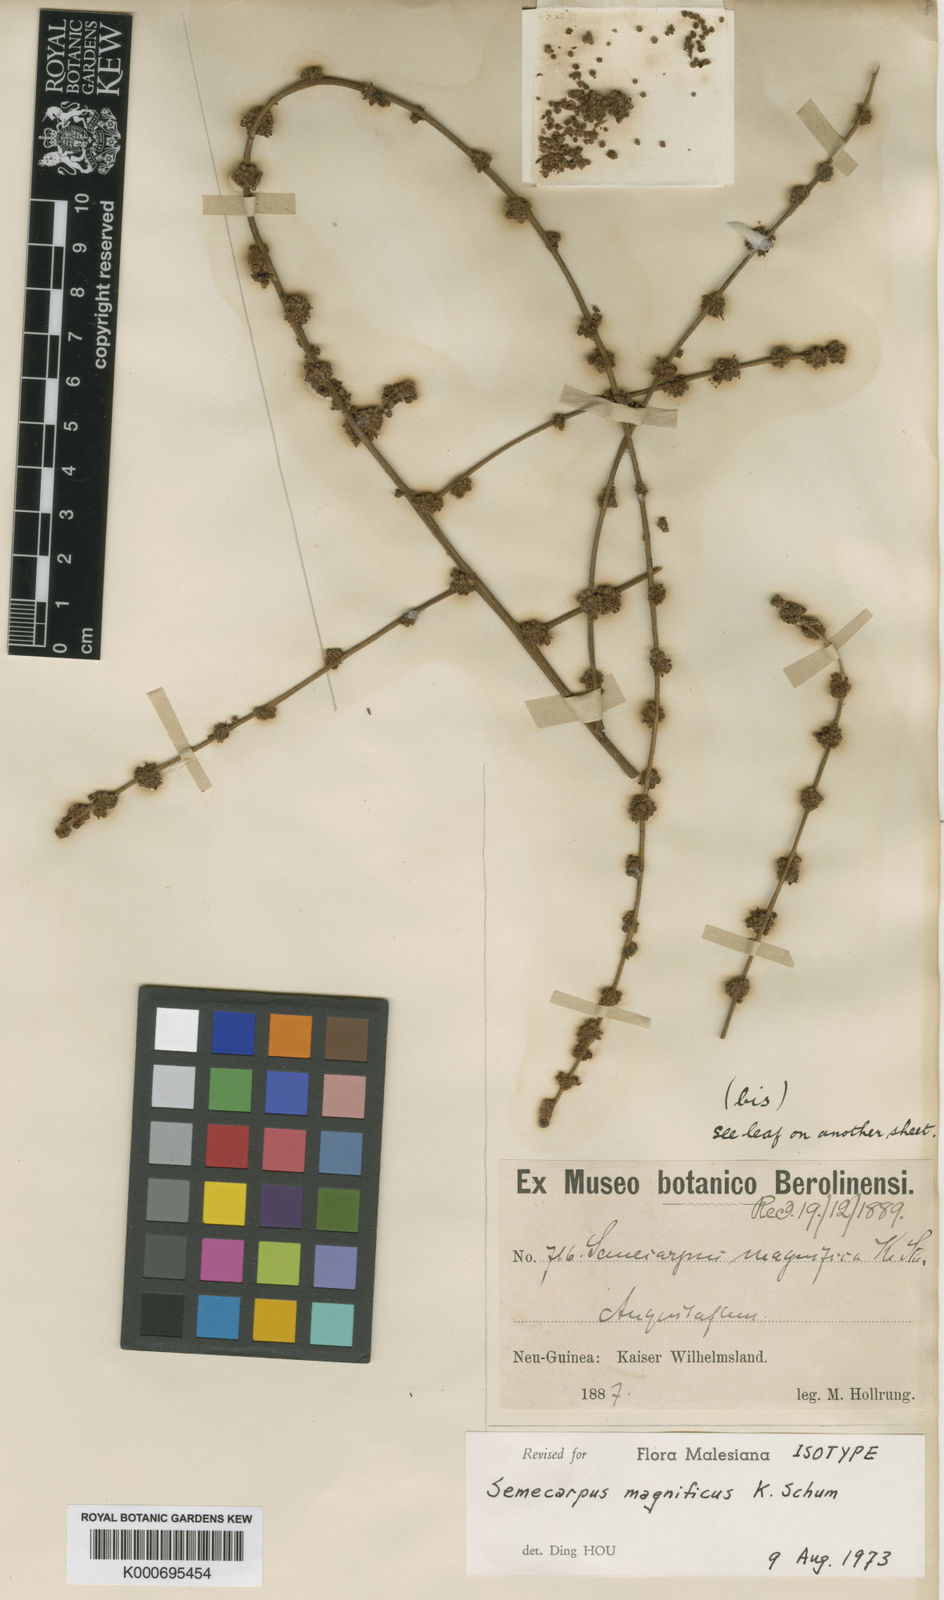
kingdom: Plantae
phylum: Tracheophyta
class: Magnoliopsida
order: Sapindales
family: Anacardiaceae
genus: Semecarpus
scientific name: Semecarpus magnificus
